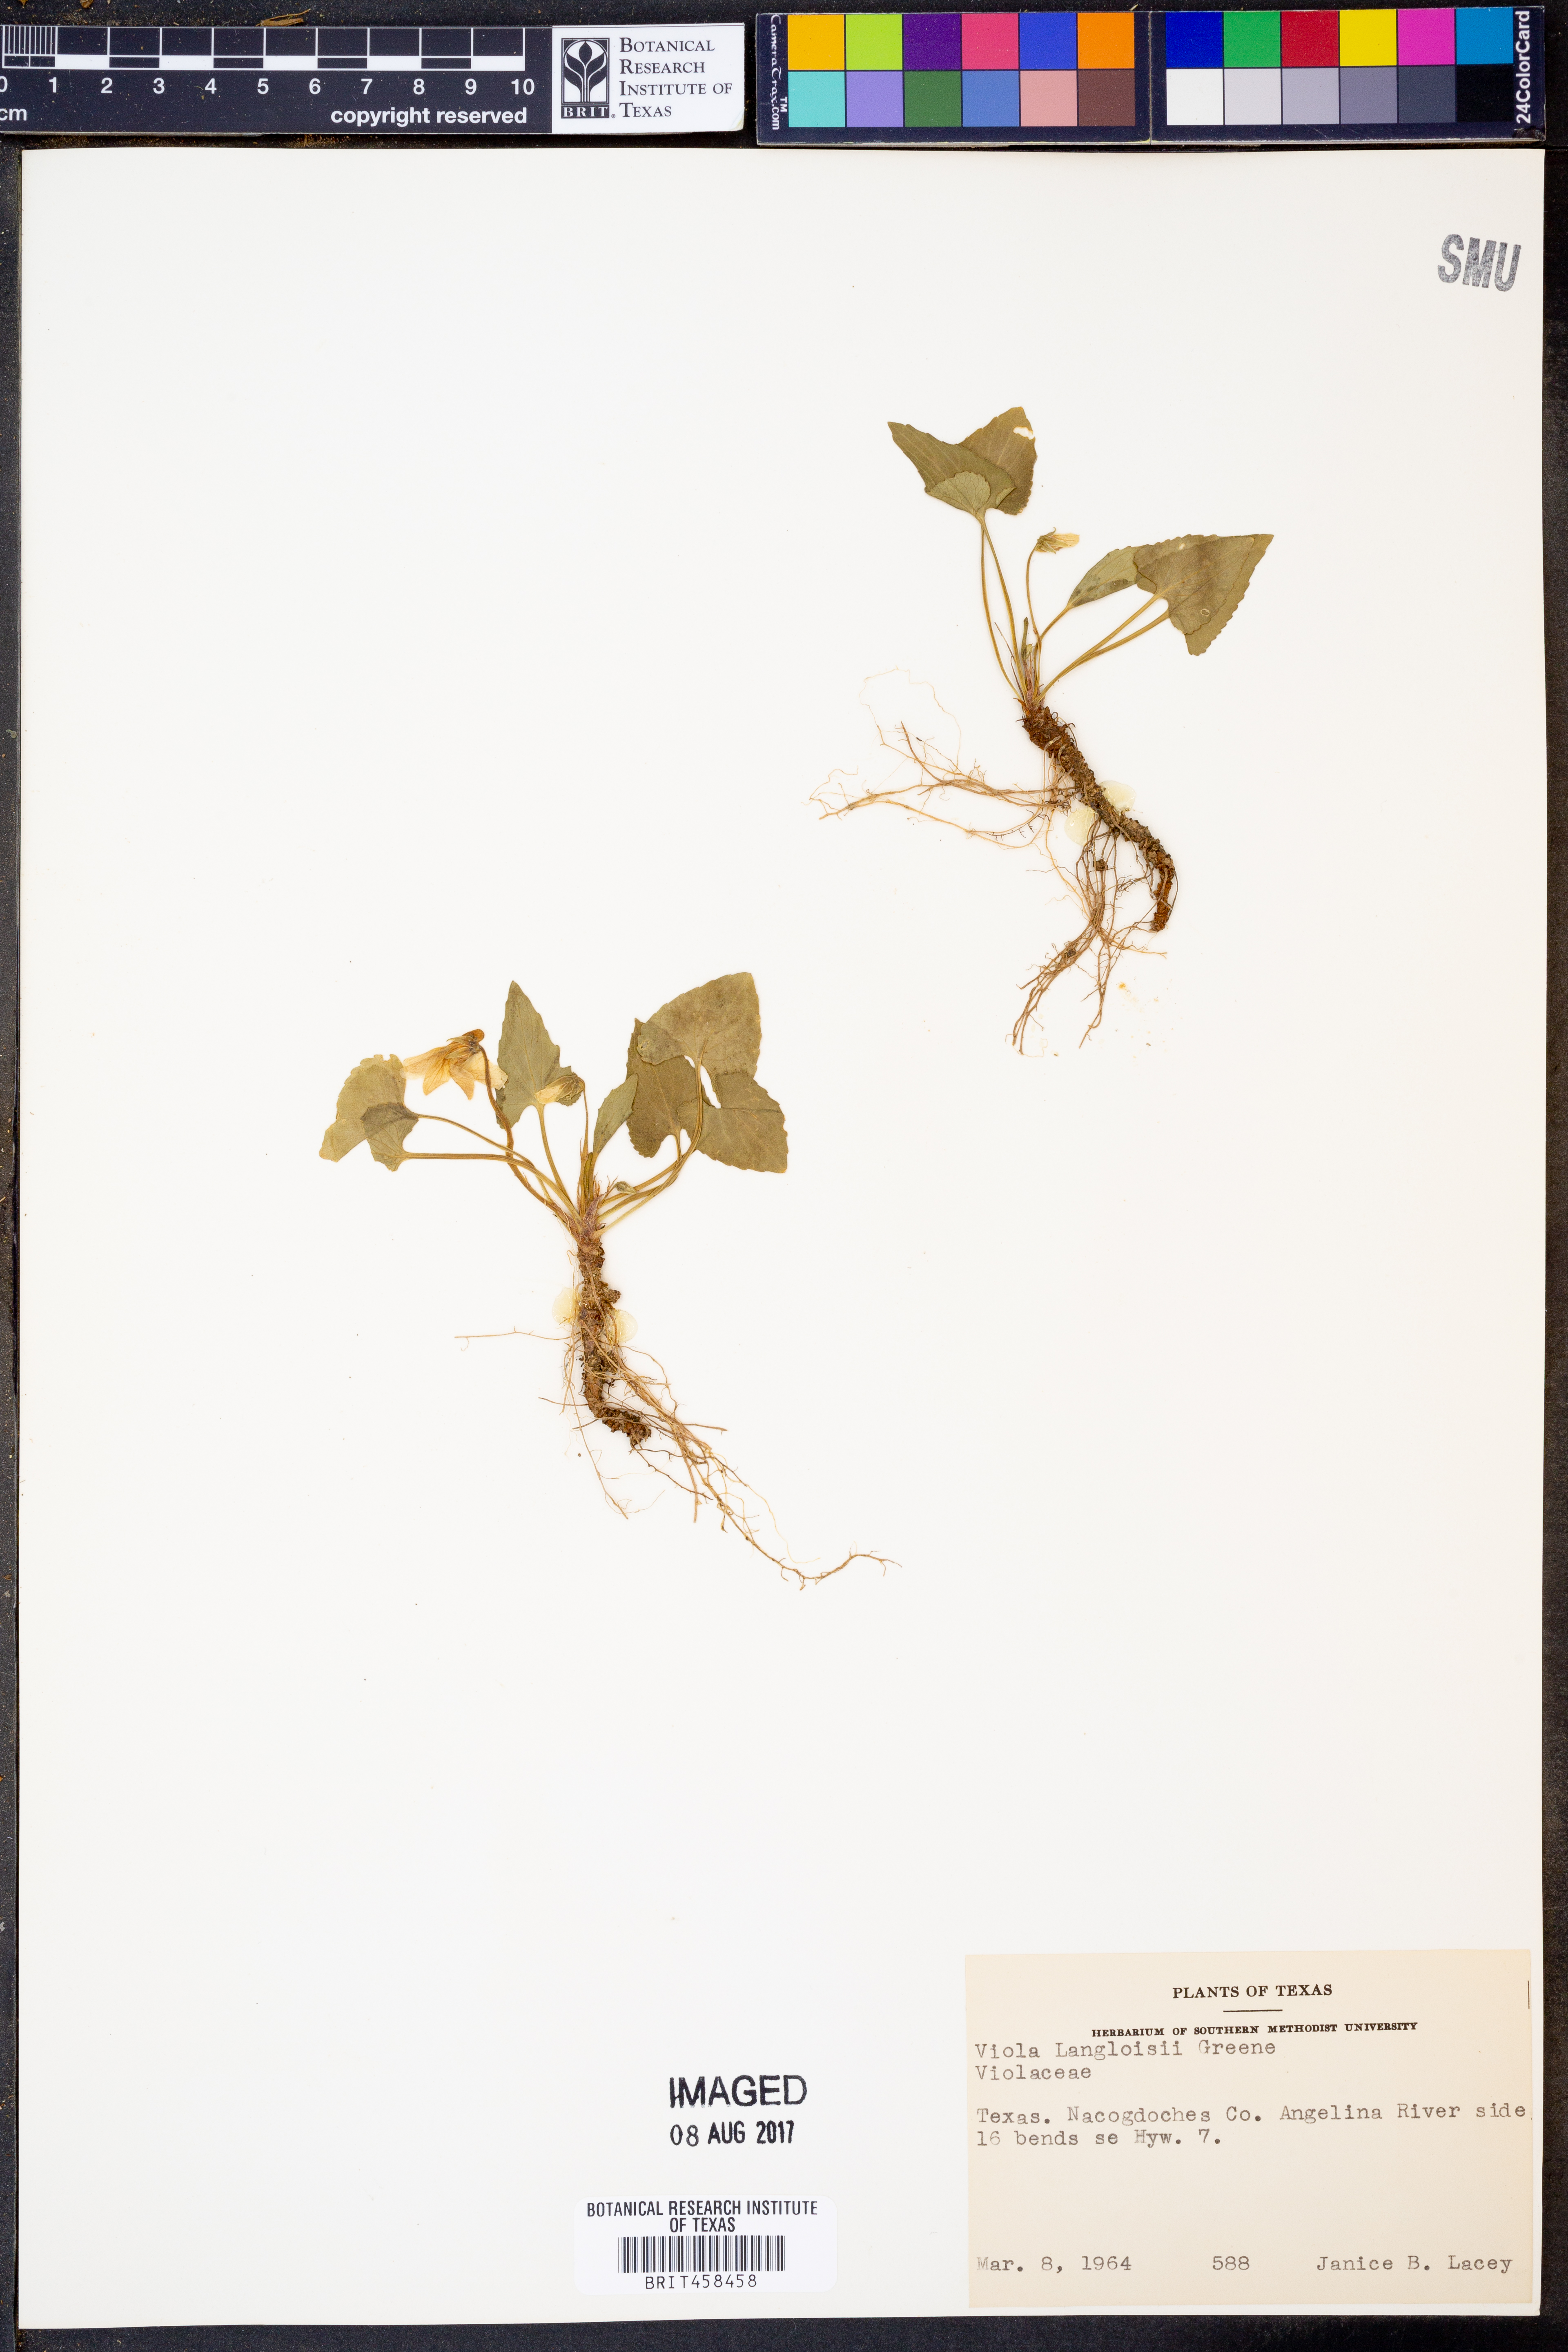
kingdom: Plantae
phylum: Tracheophyta
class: Magnoliopsida
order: Malpighiales
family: Violaceae
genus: Viola
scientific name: Viola langloisii
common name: Langlois' violet
